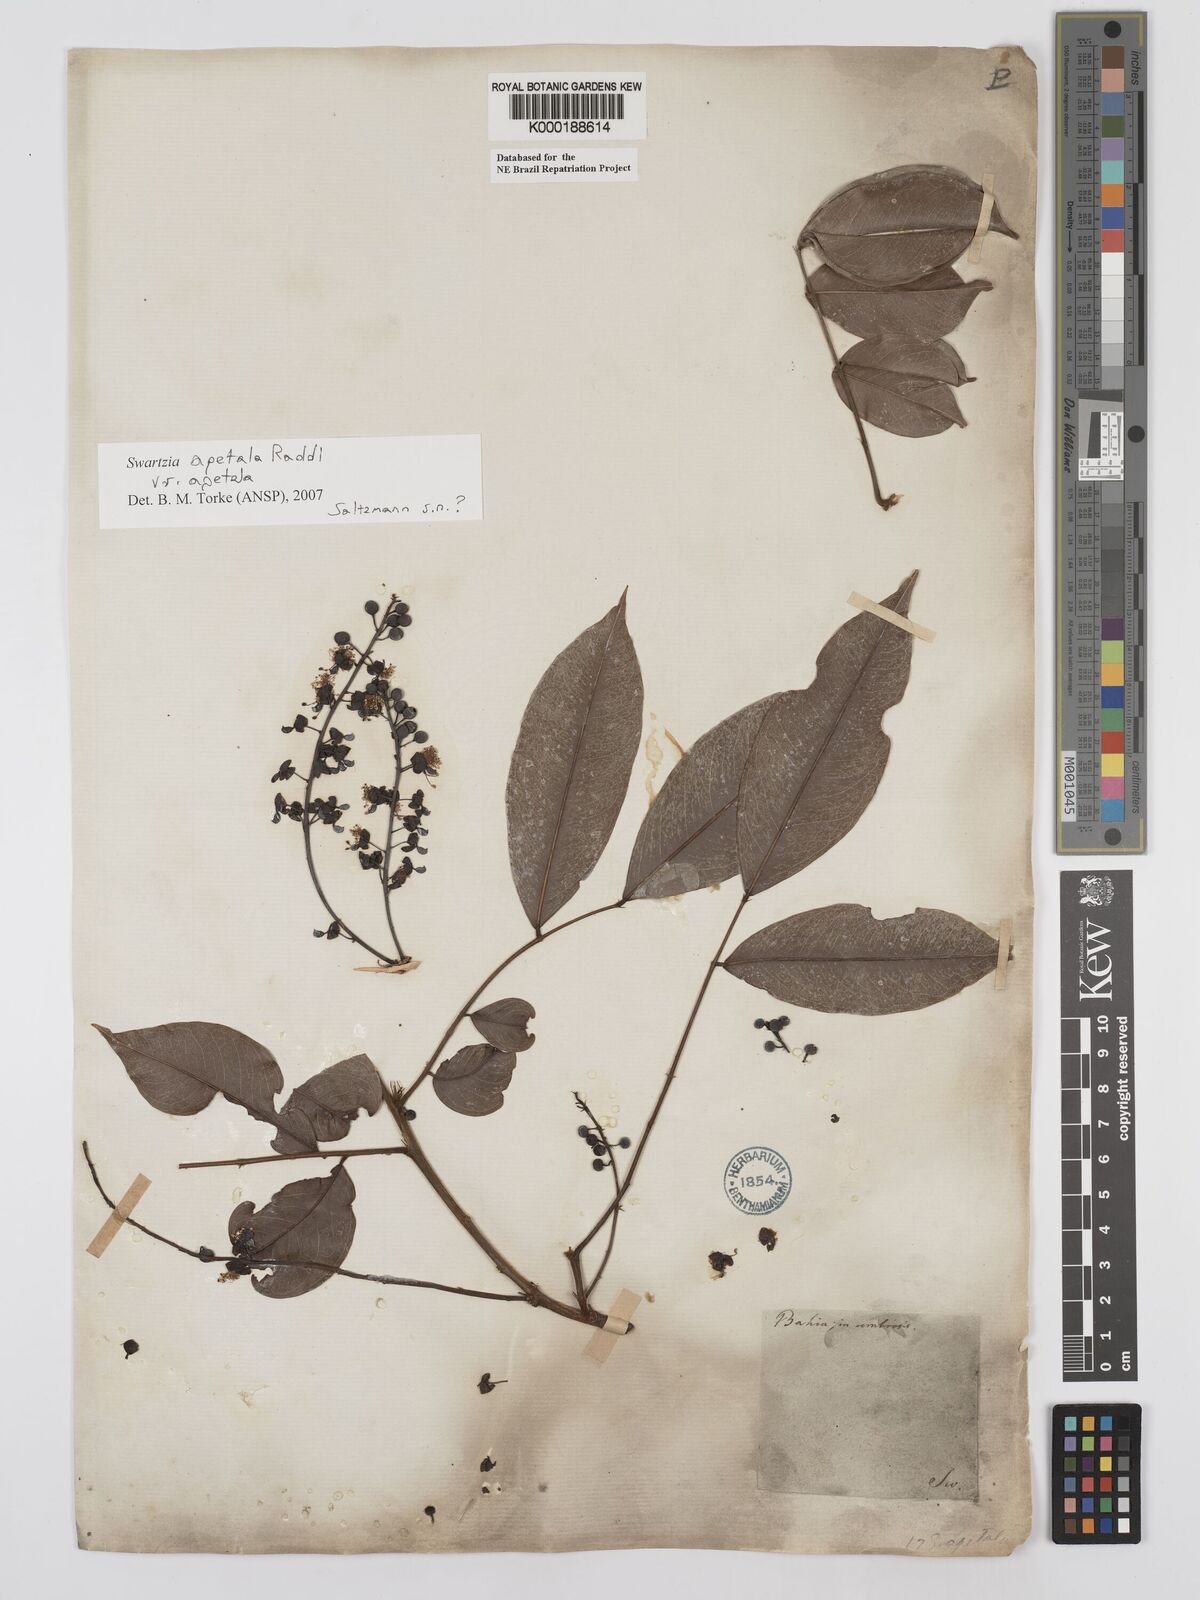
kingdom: Plantae
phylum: Tracheophyta
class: Magnoliopsida
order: Fabales
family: Fabaceae
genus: Swartzia
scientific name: Swartzia apetala
